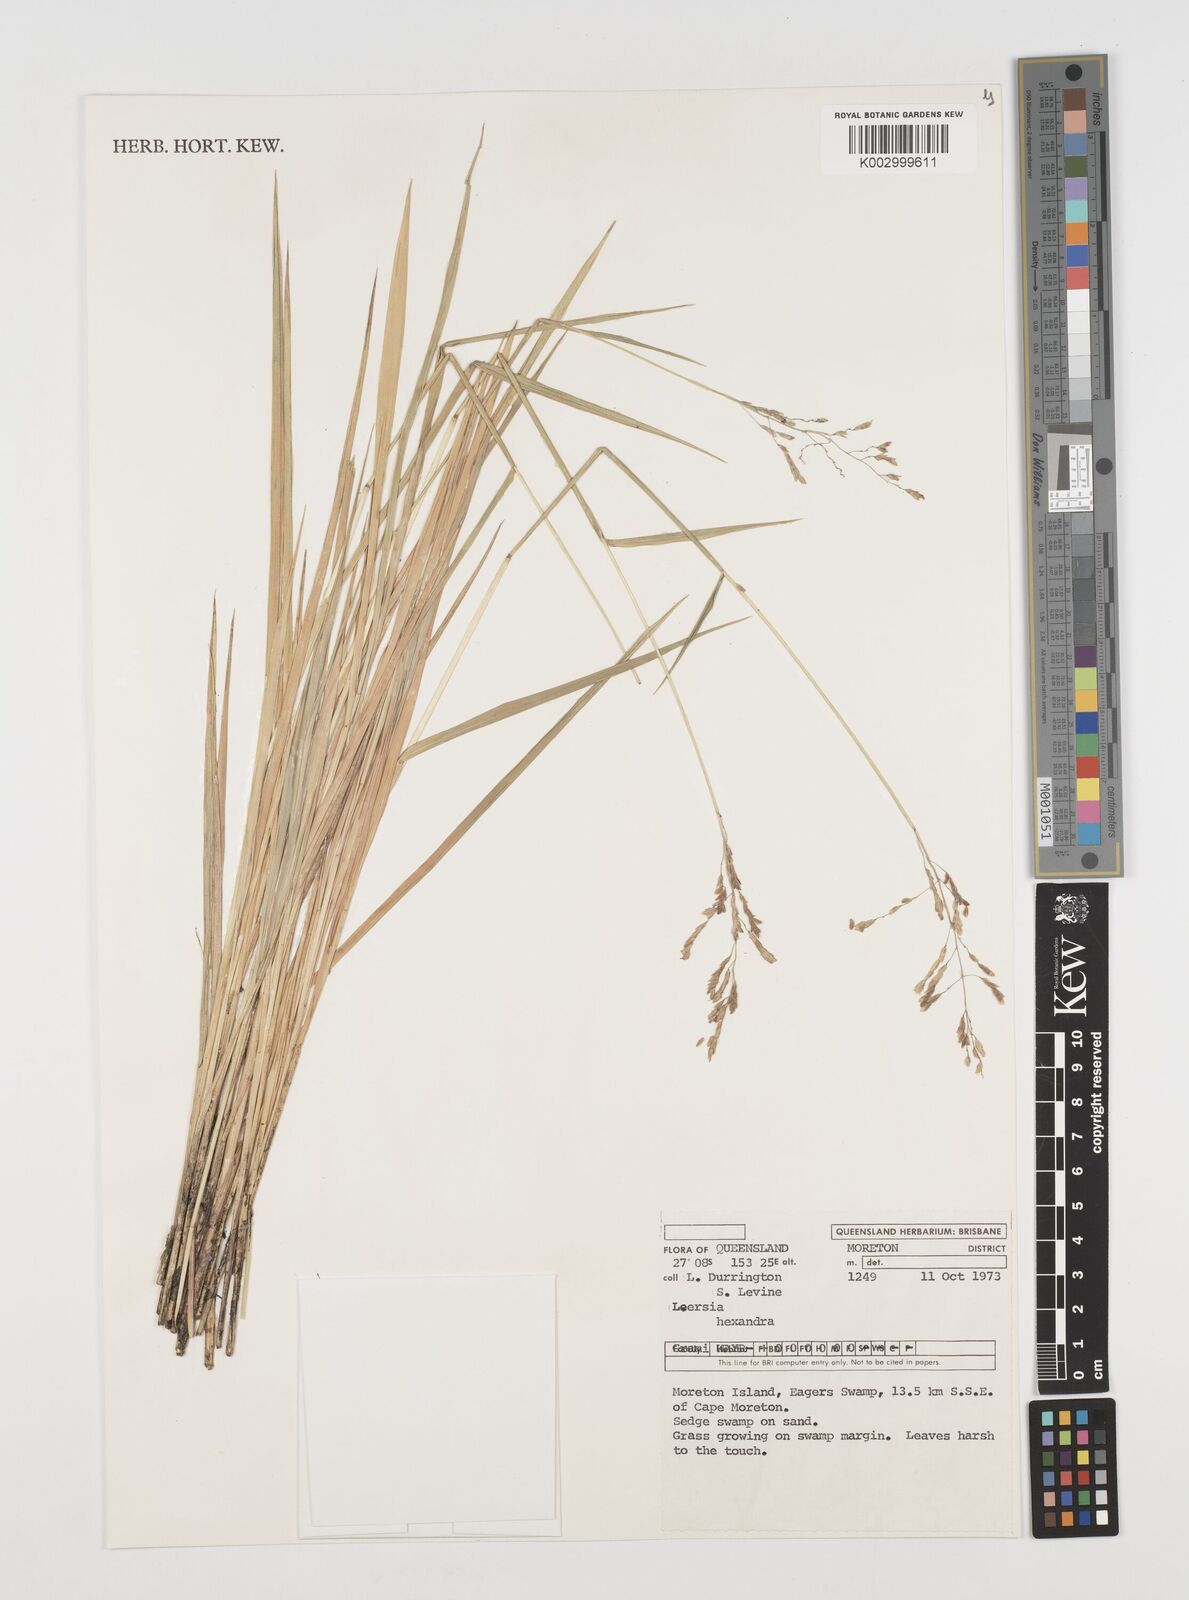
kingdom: Plantae
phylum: Tracheophyta
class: Liliopsida
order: Poales
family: Poaceae
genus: Leersia
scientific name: Leersia hexandra
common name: Southern cut grass
